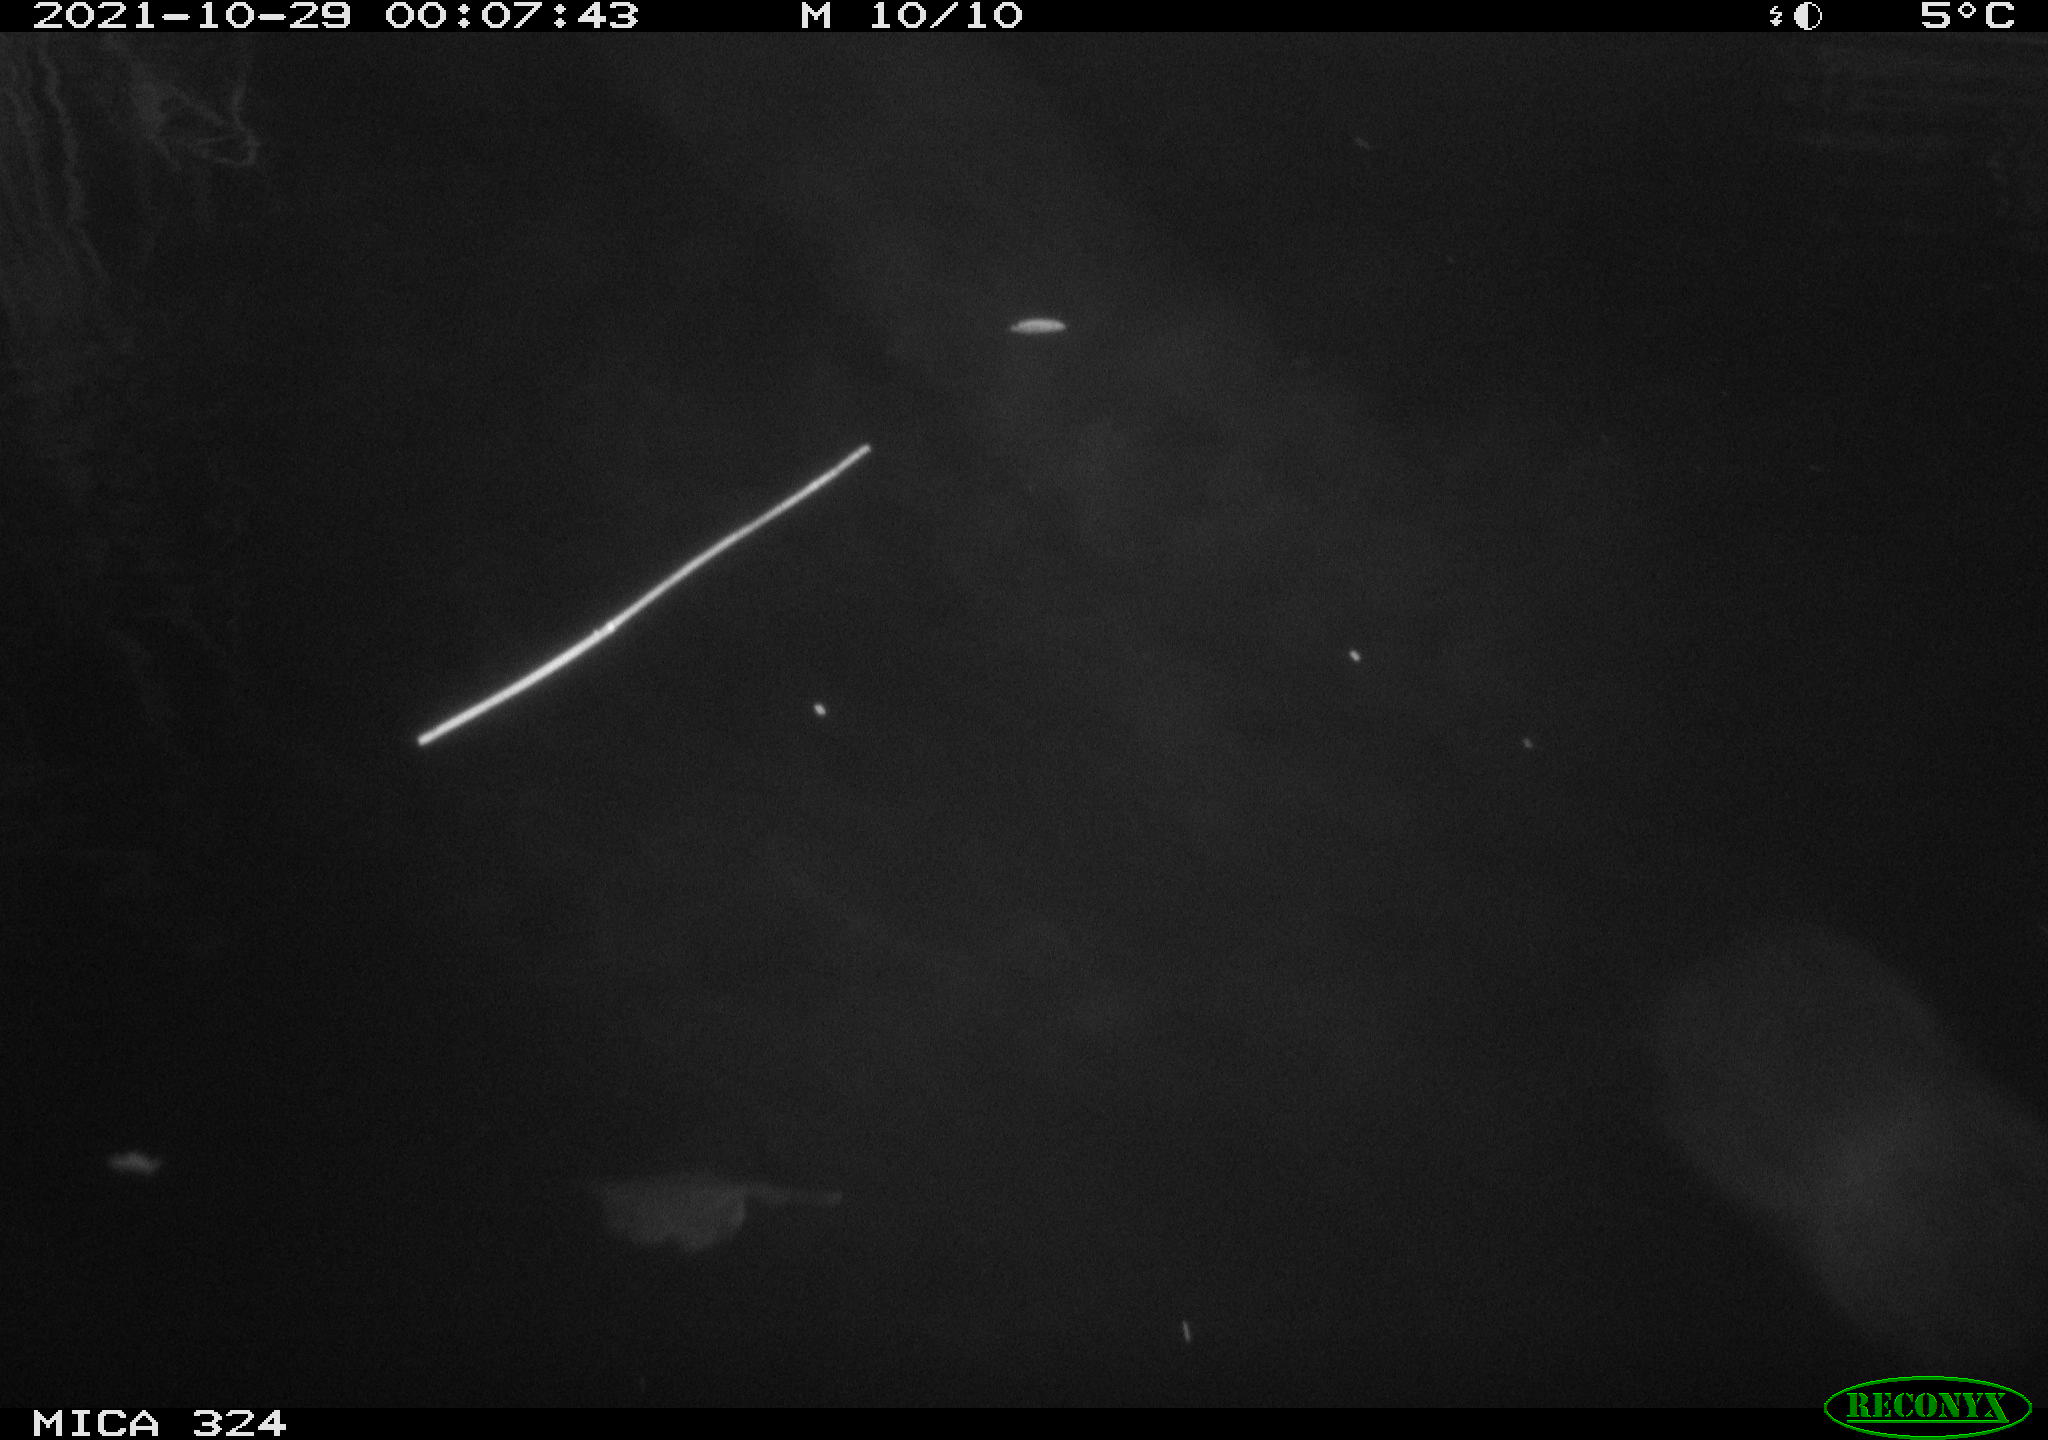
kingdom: Animalia
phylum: Chordata
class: Mammalia
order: Rodentia
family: Cricetidae
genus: Ondatra
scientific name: Ondatra zibethicus
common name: Muskrat
